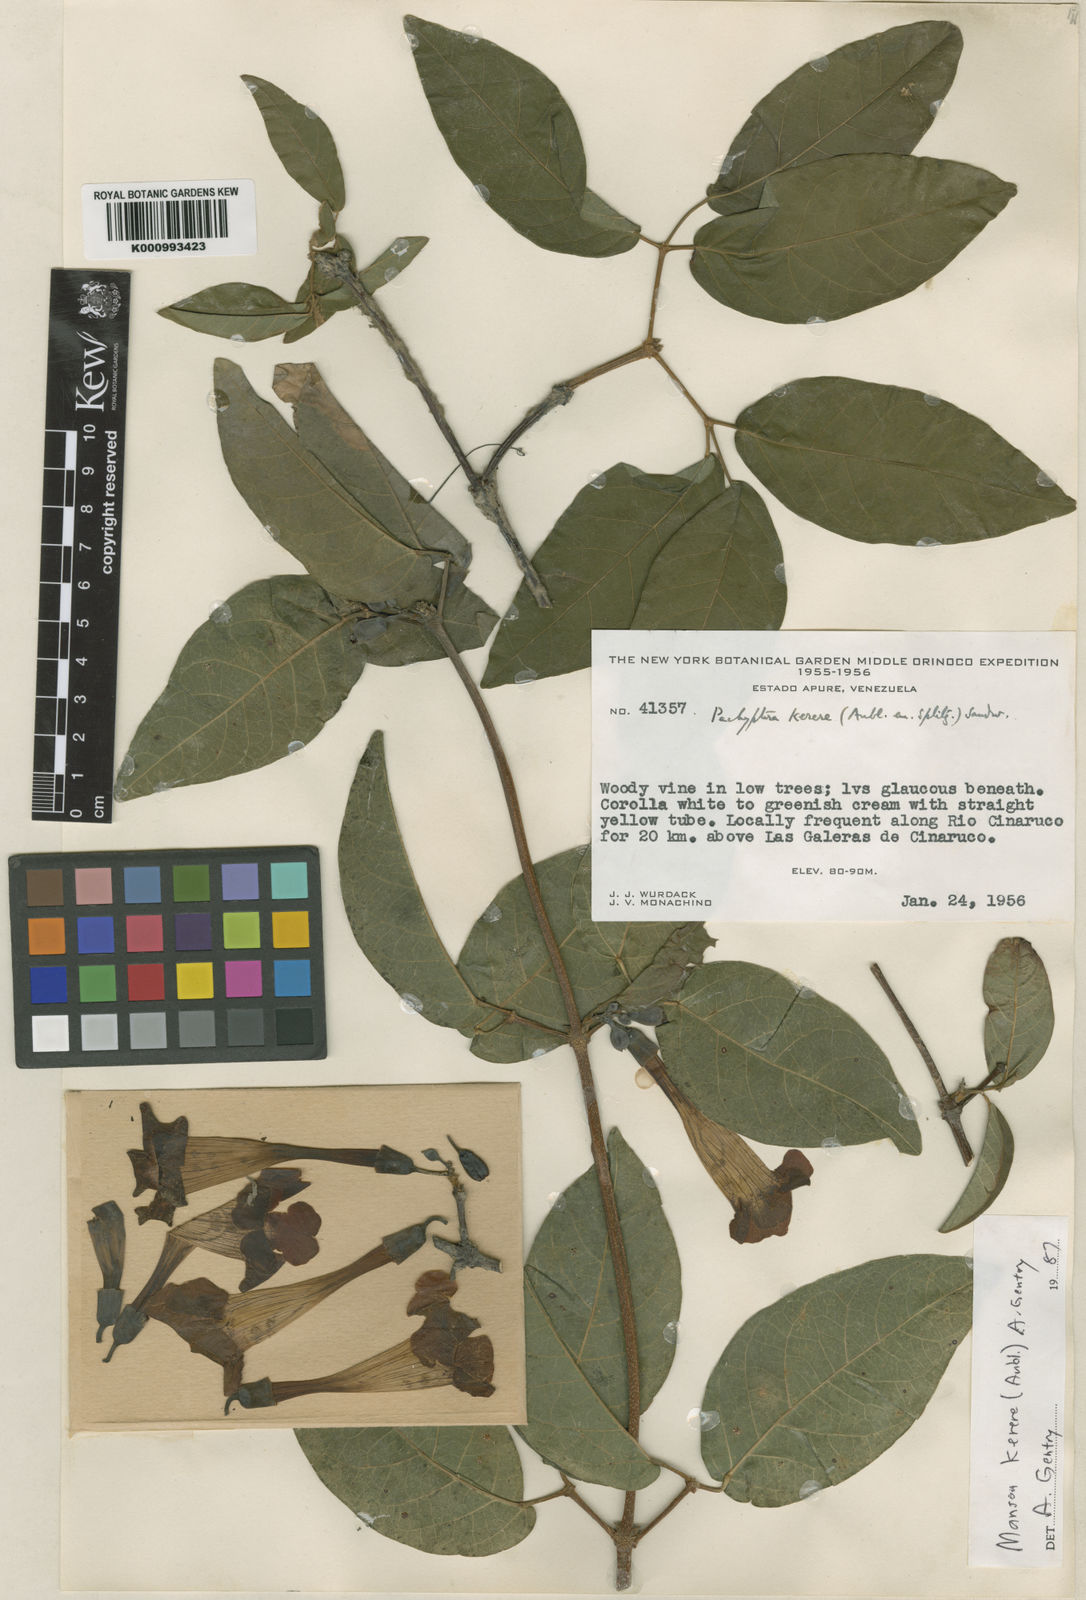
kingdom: Plantae
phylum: Tracheophyta
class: Magnoliopsida
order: Lamiales
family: Bignoniaceae
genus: Pachyptera
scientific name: Pachyptera
